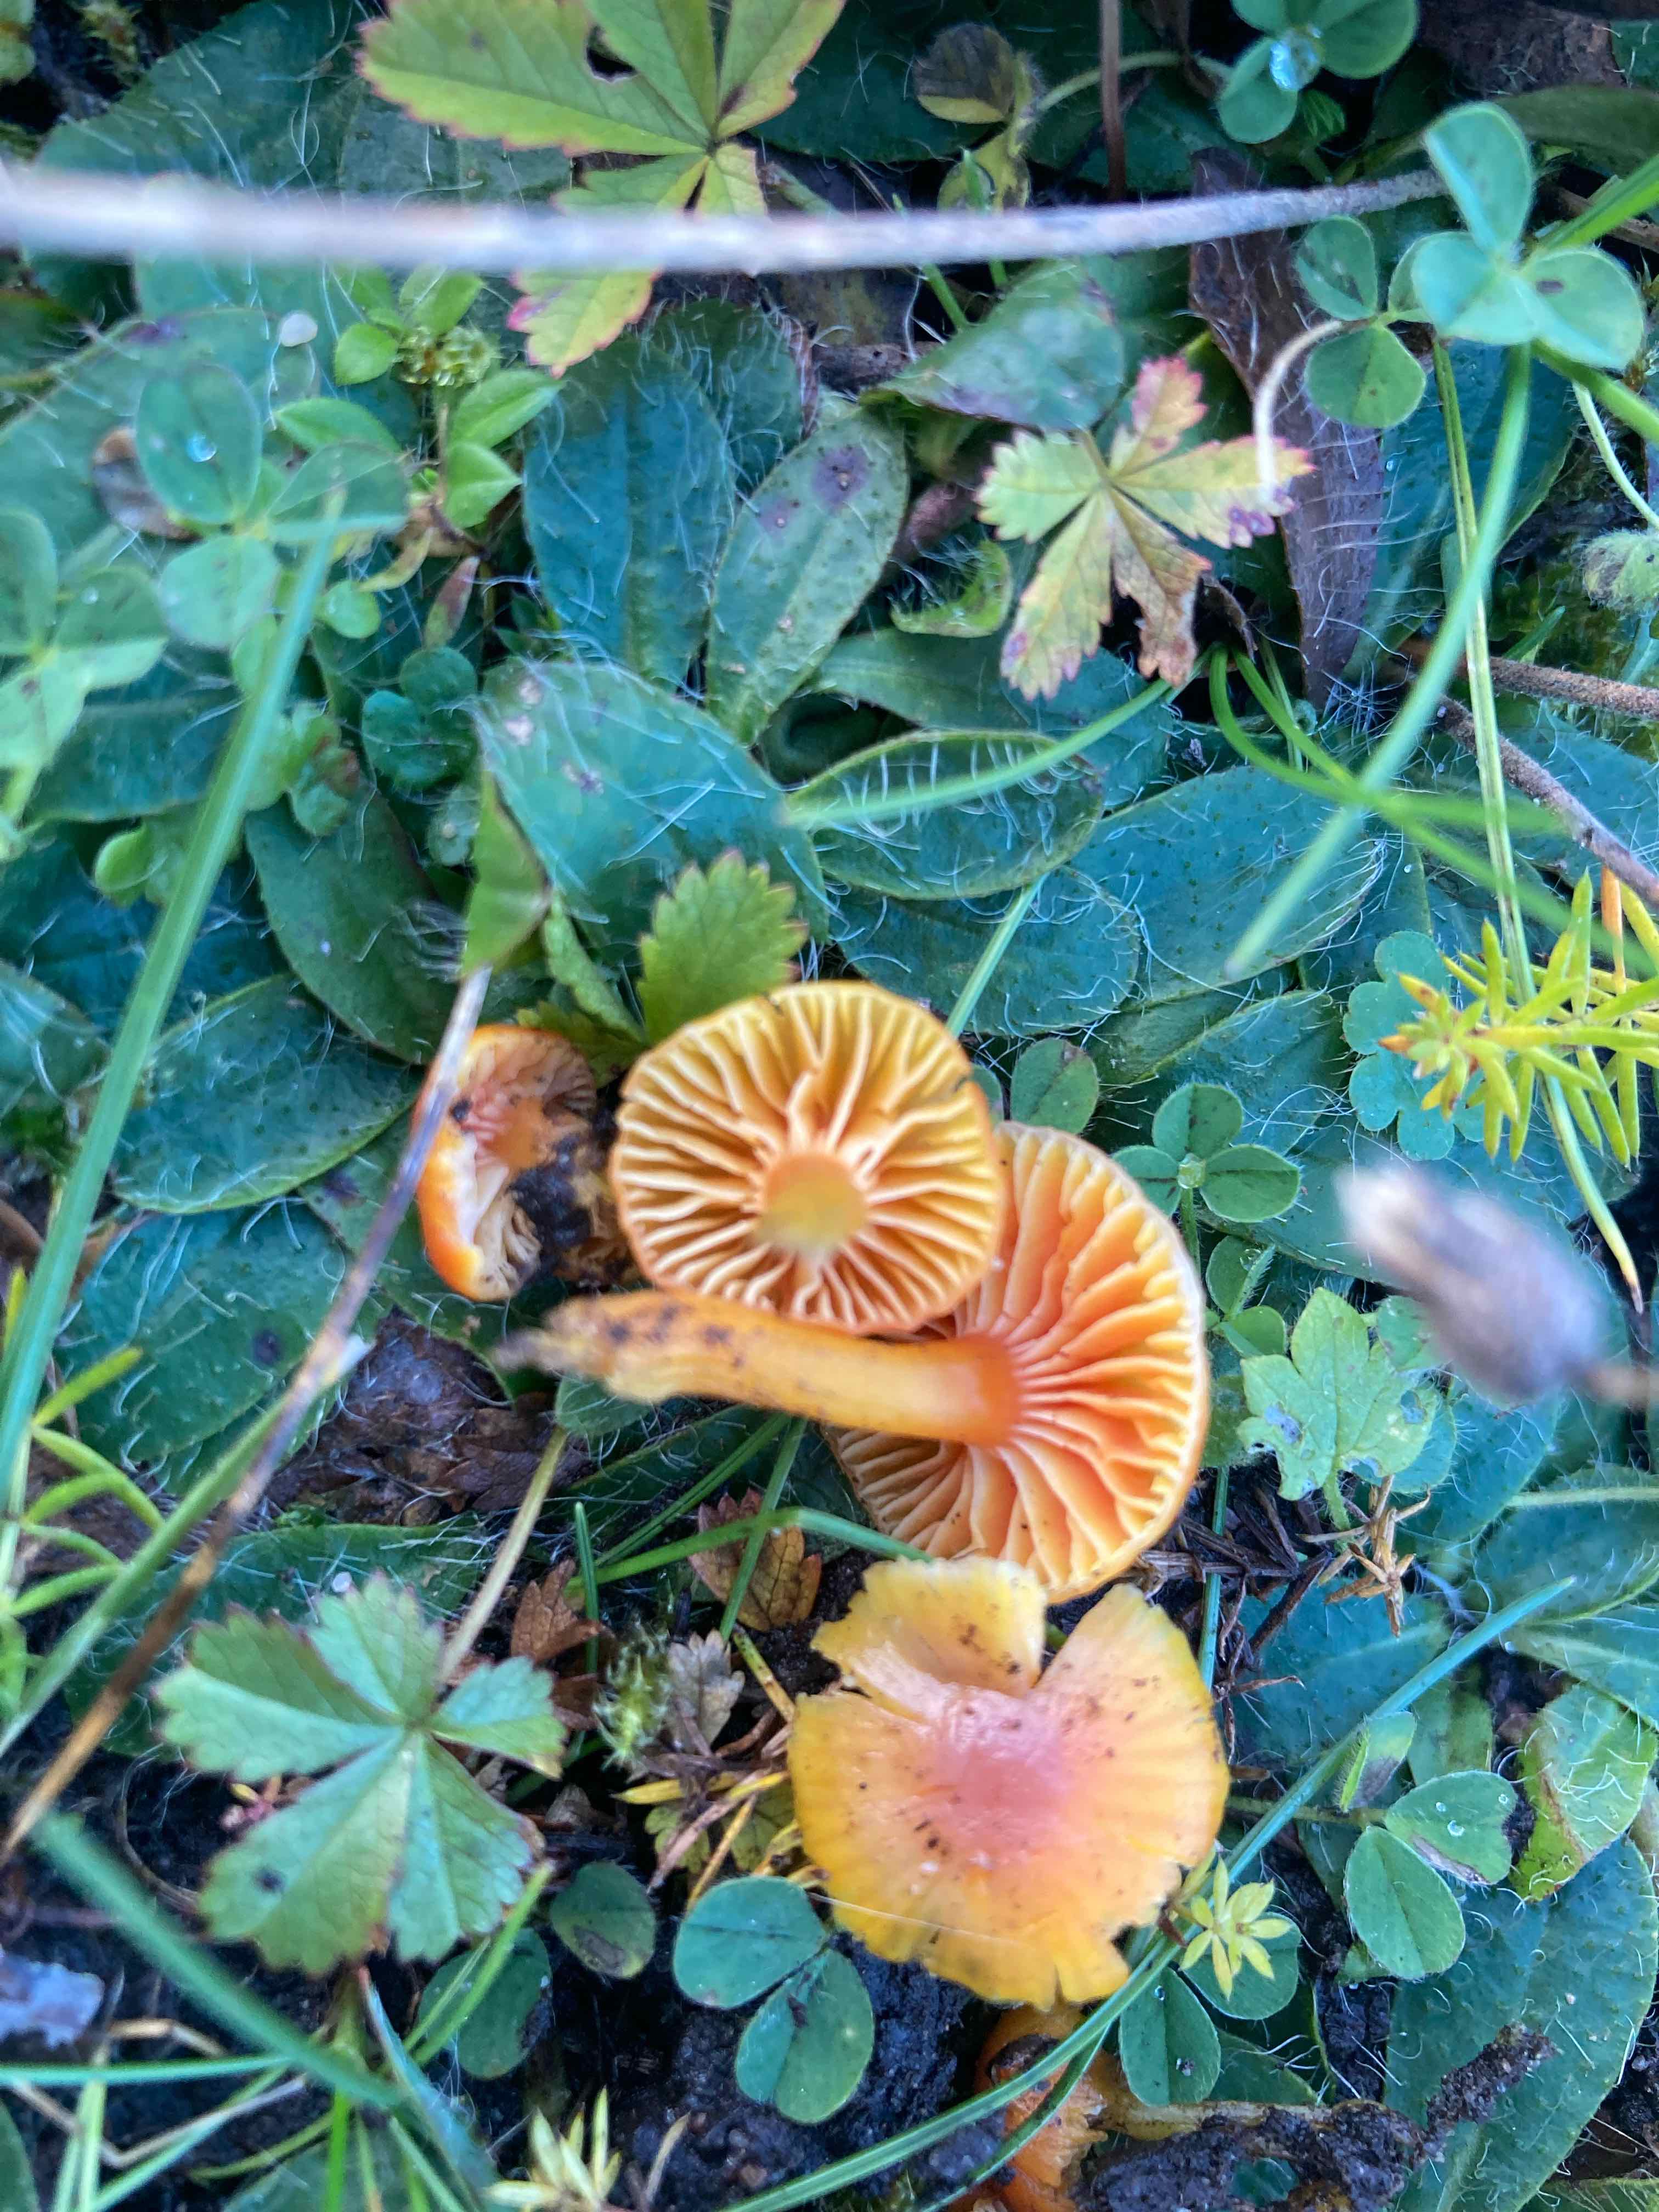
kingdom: Fungi
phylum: Basidiomycota
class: Agaricomycetes
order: Agaricales
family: Hygrophoraceae
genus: Hygrocybe
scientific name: Hygrocybe insipida
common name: liden vokshat
